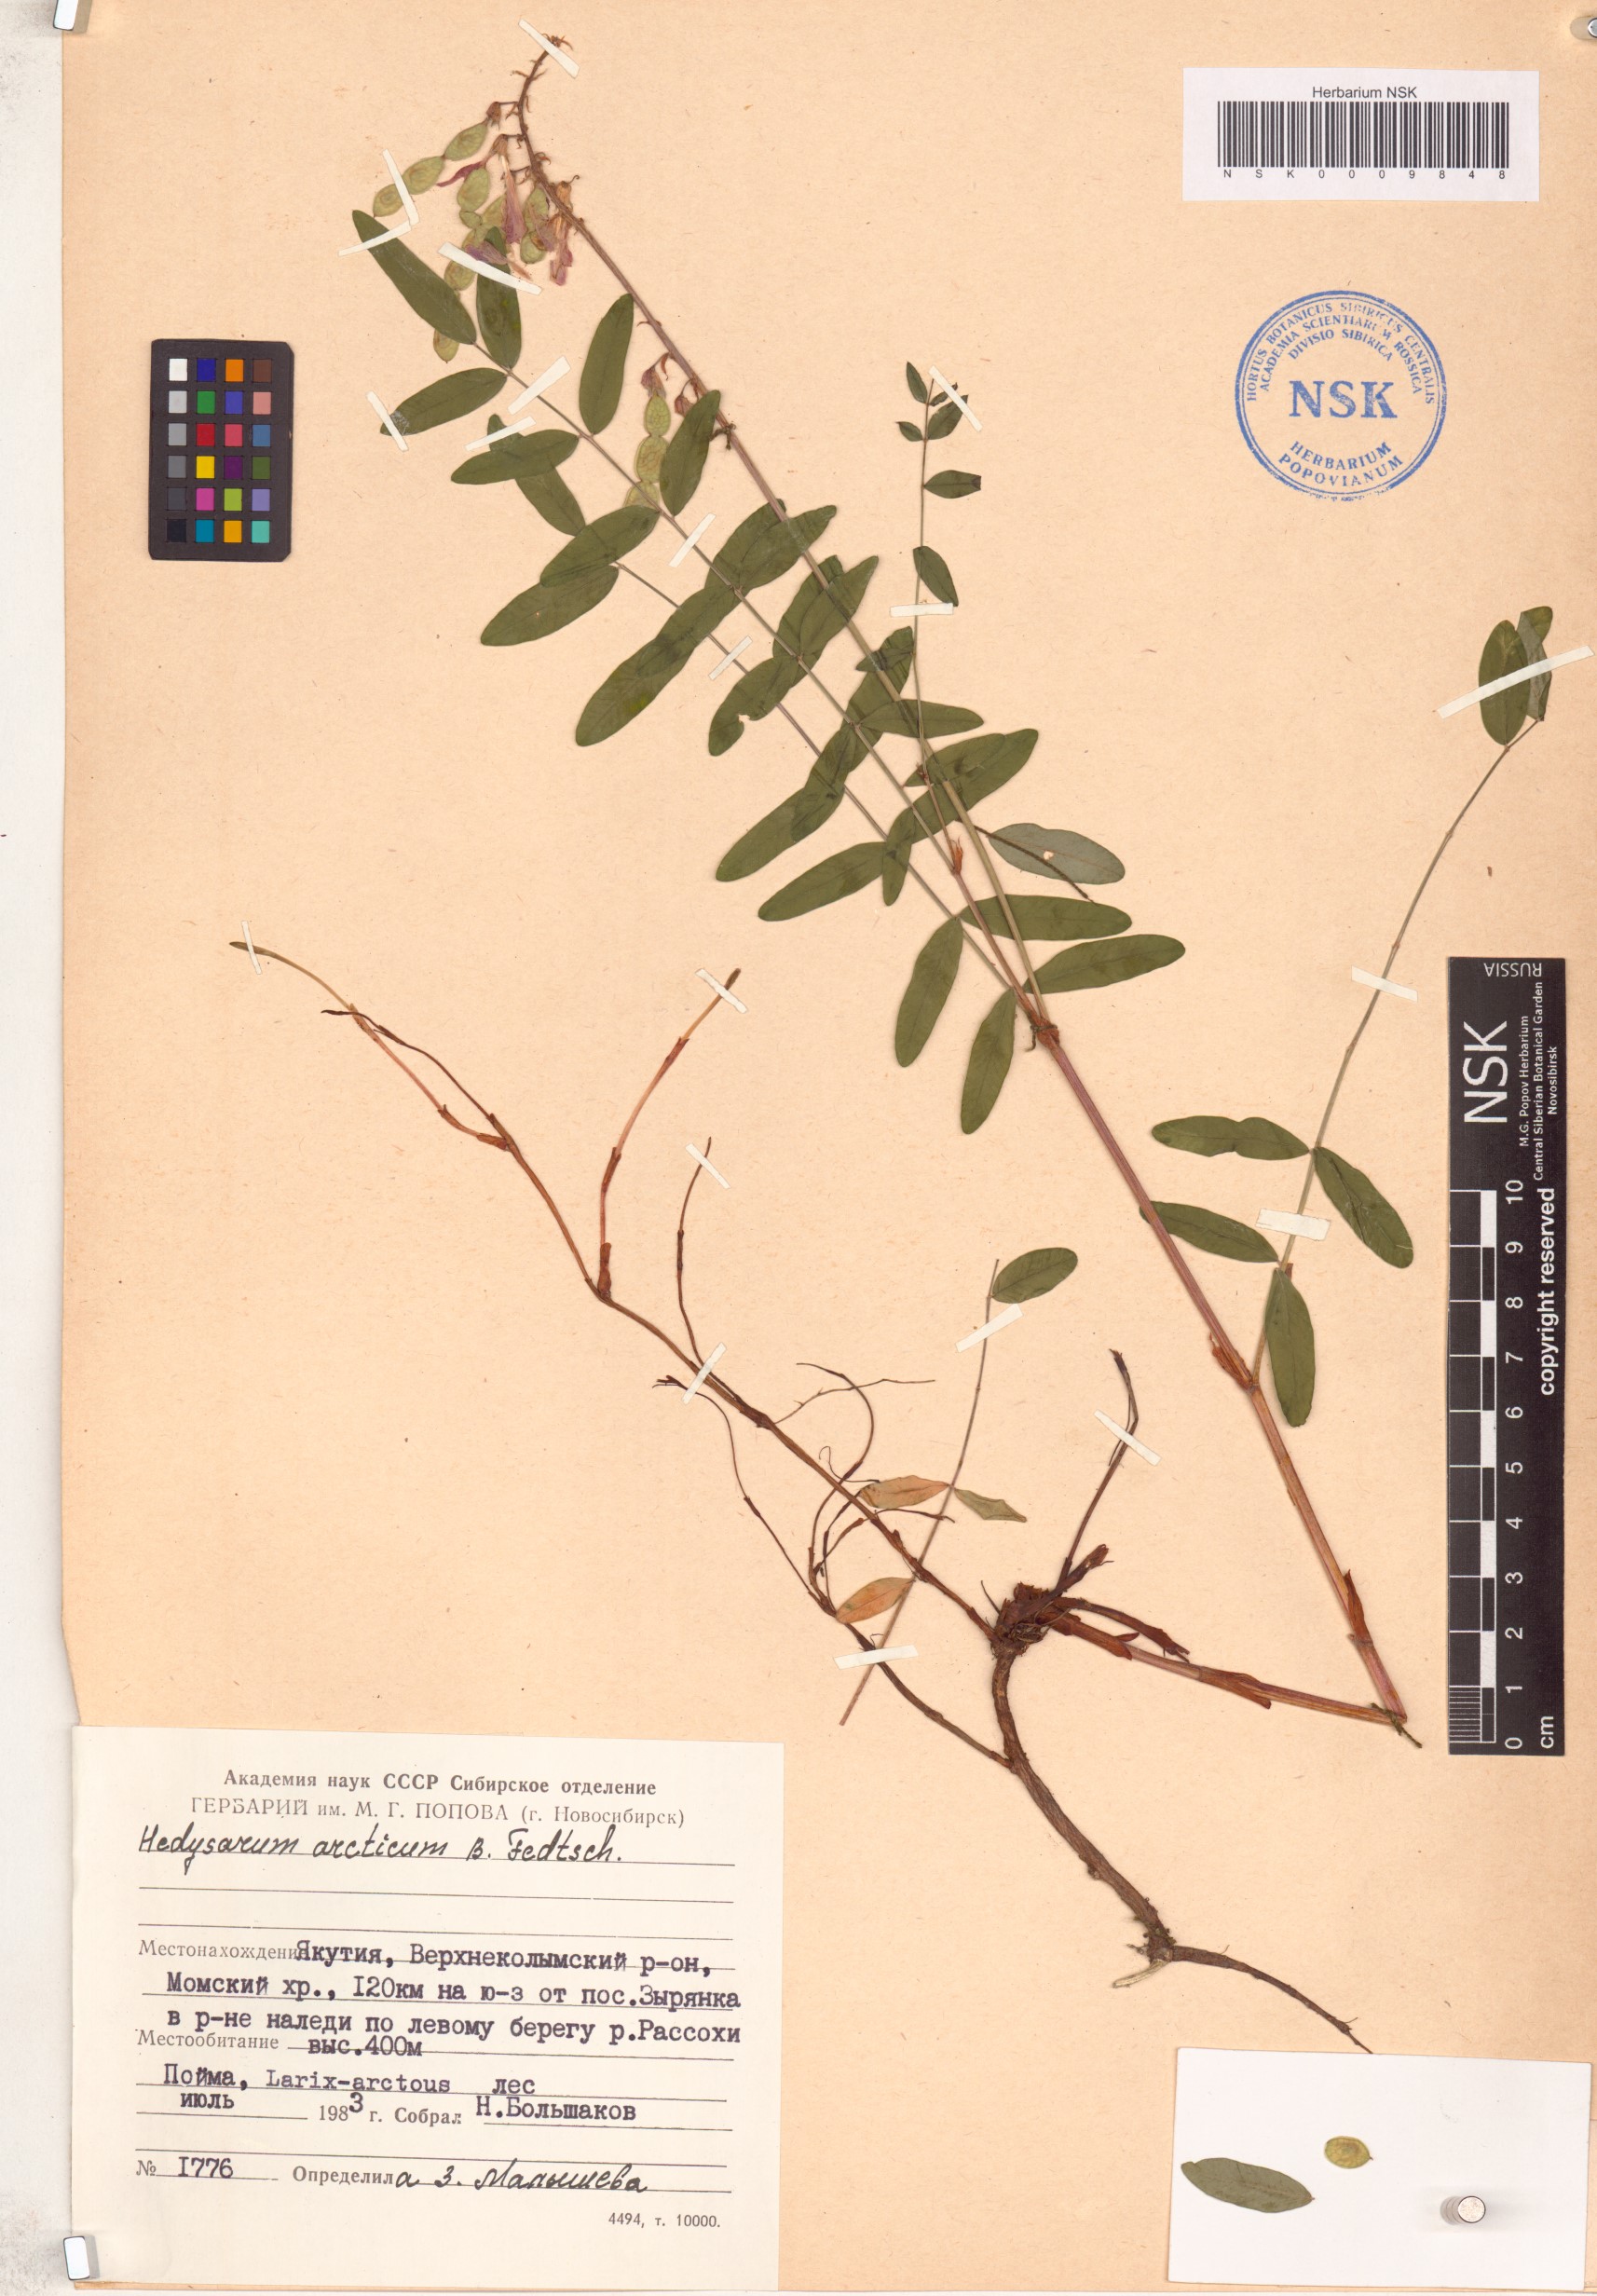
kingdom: Plantae
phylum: Tracheophyta
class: Magnoliopsida
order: Fabales
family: Fabaceae
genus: Hedysarum
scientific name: Hedysarum hedysaroides
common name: Alpine french-honeysuckle
